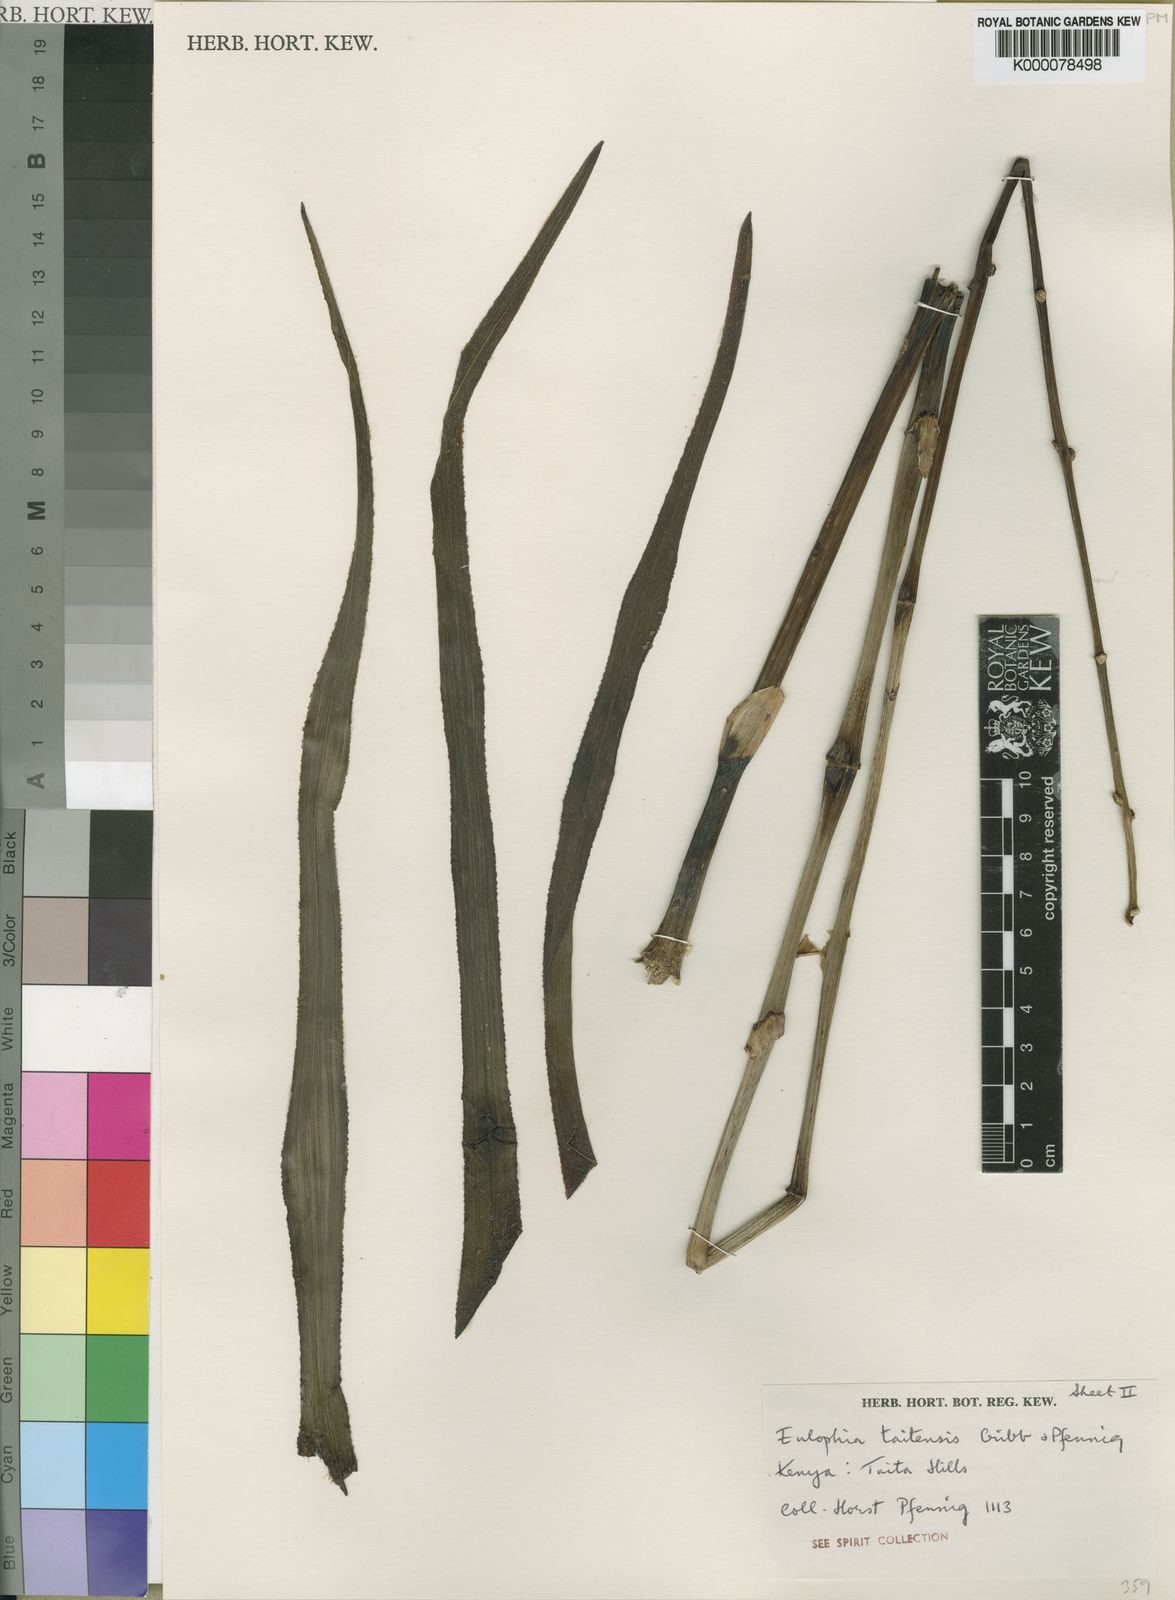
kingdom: Plantae
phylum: Tracheophyta
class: Liliopsida
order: Asparagales
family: Orchidaceae
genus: Eulophia
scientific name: Eulophia taitensis
